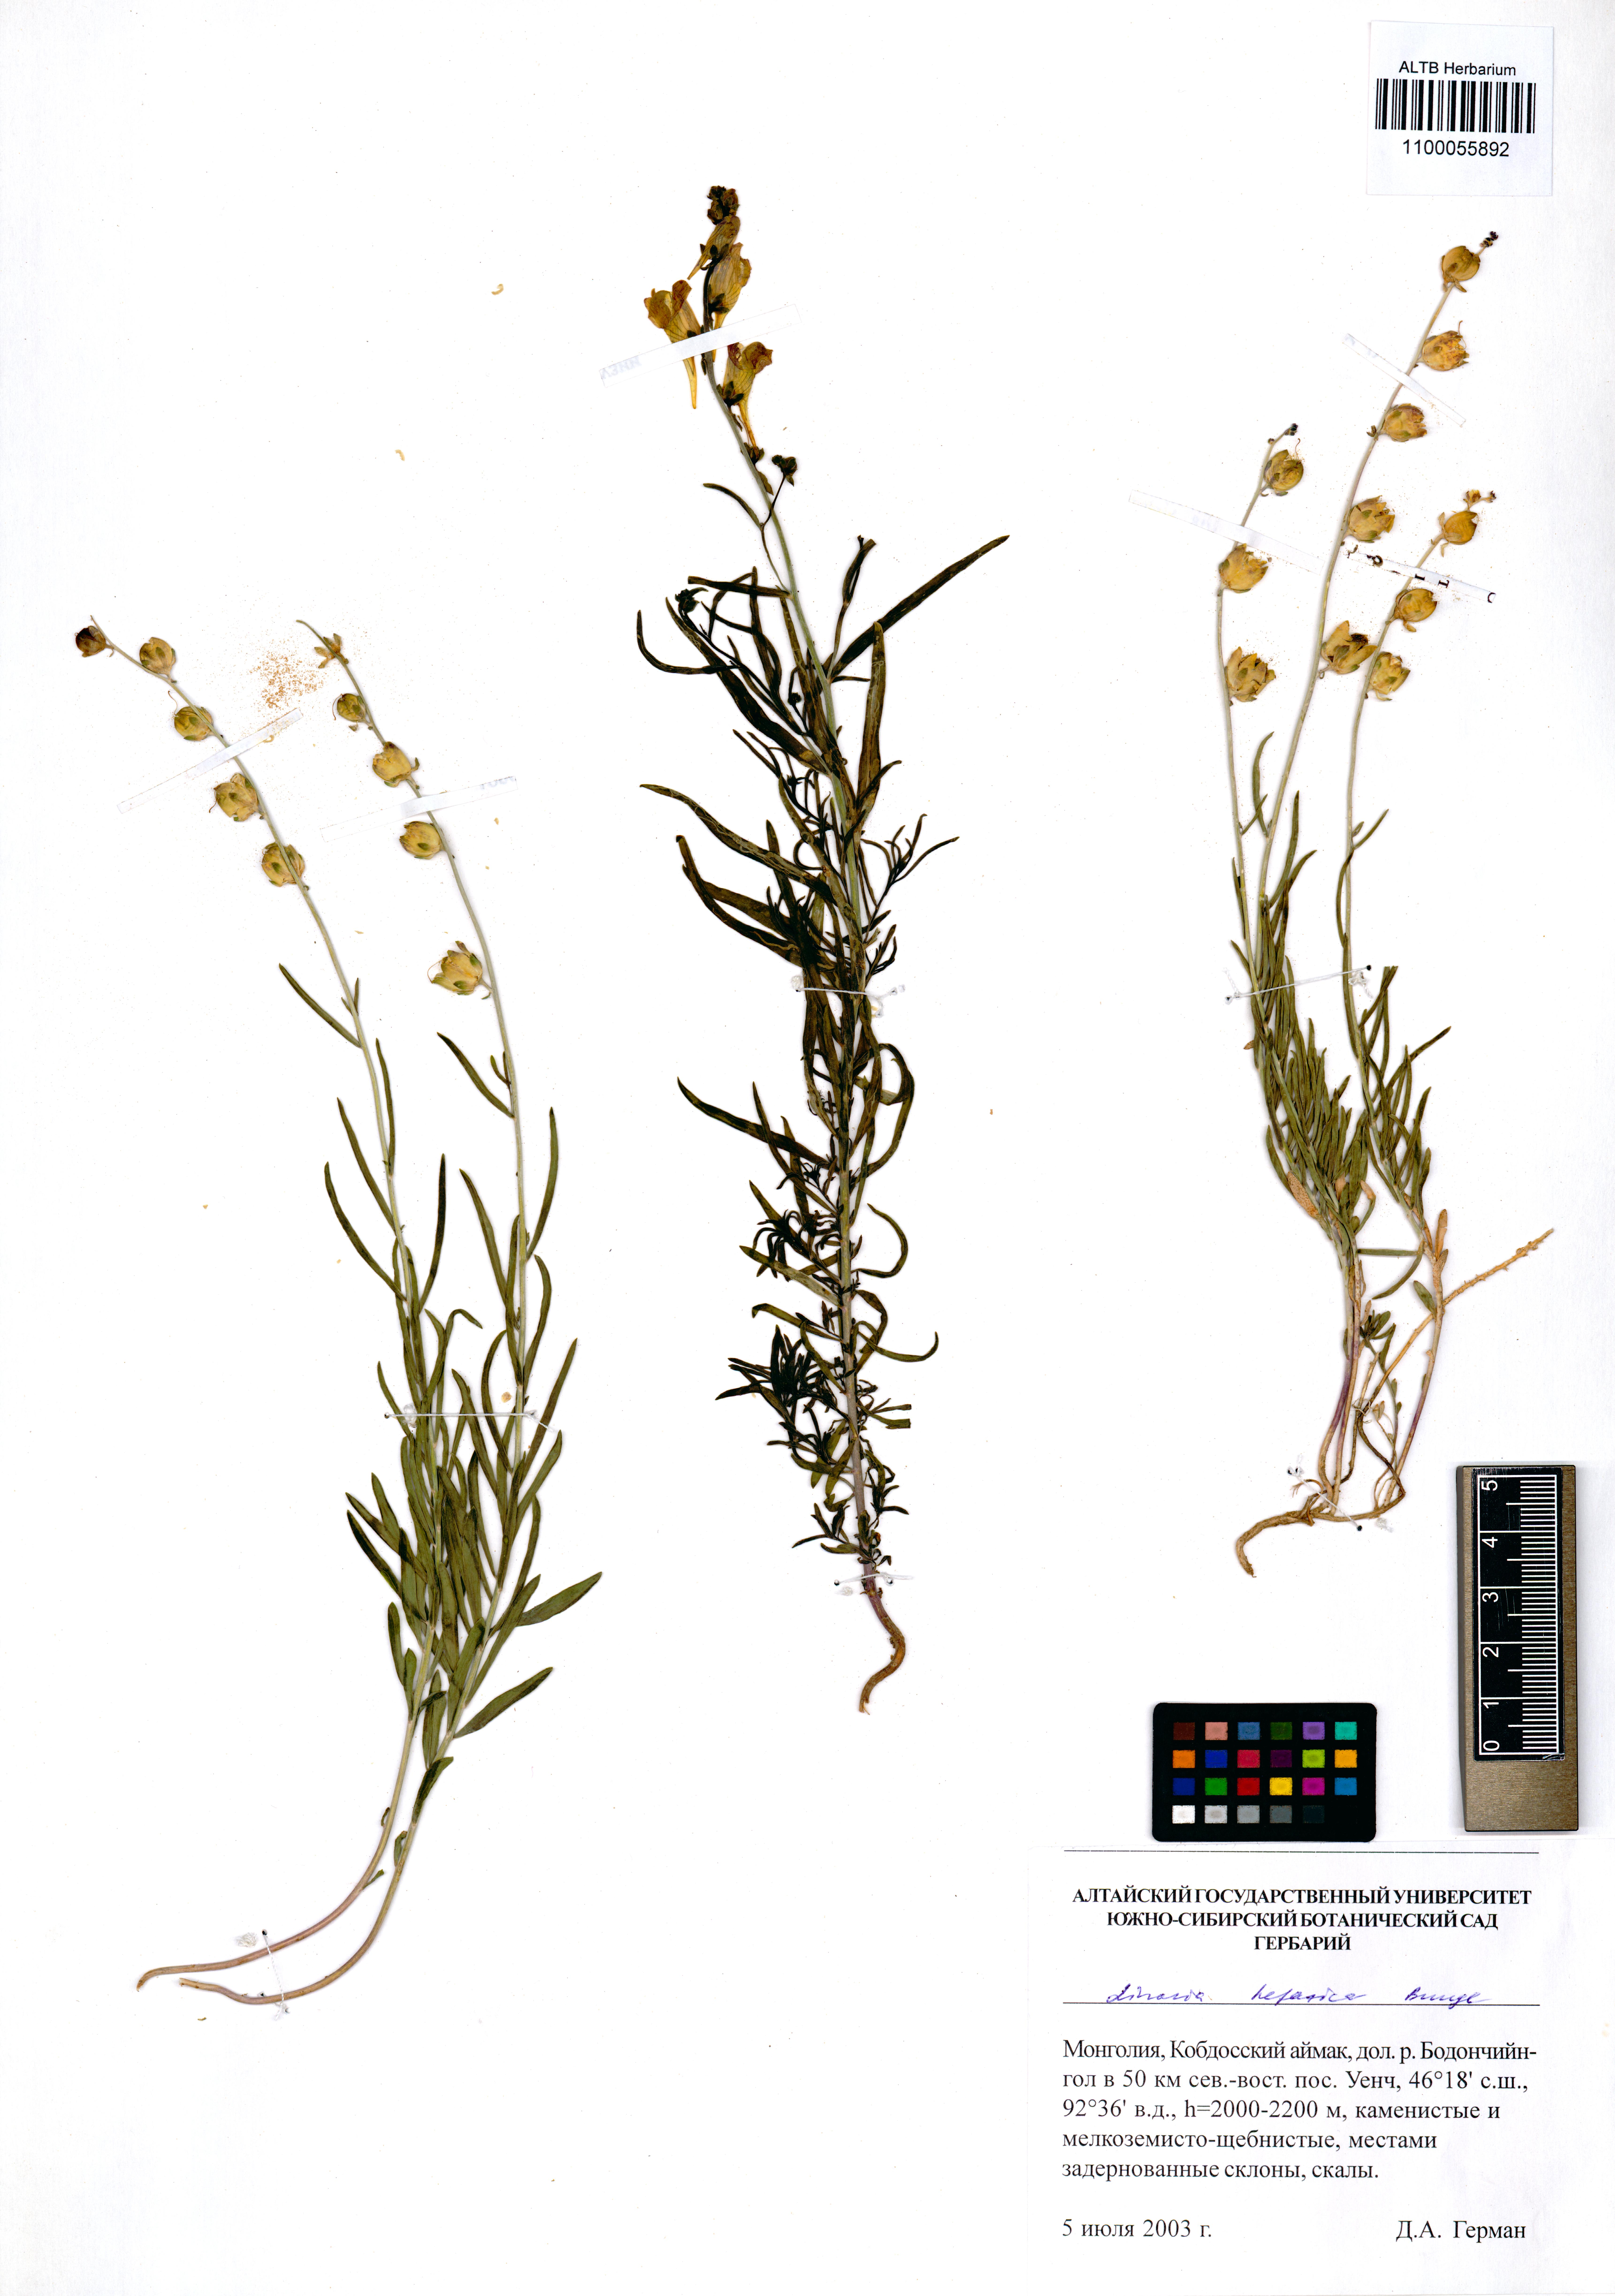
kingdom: Plantae
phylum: Tracheophyta
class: Magnoliopsida
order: Lamiales
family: Plantaginaceae
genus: Linaria
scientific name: Linaria hepatica
